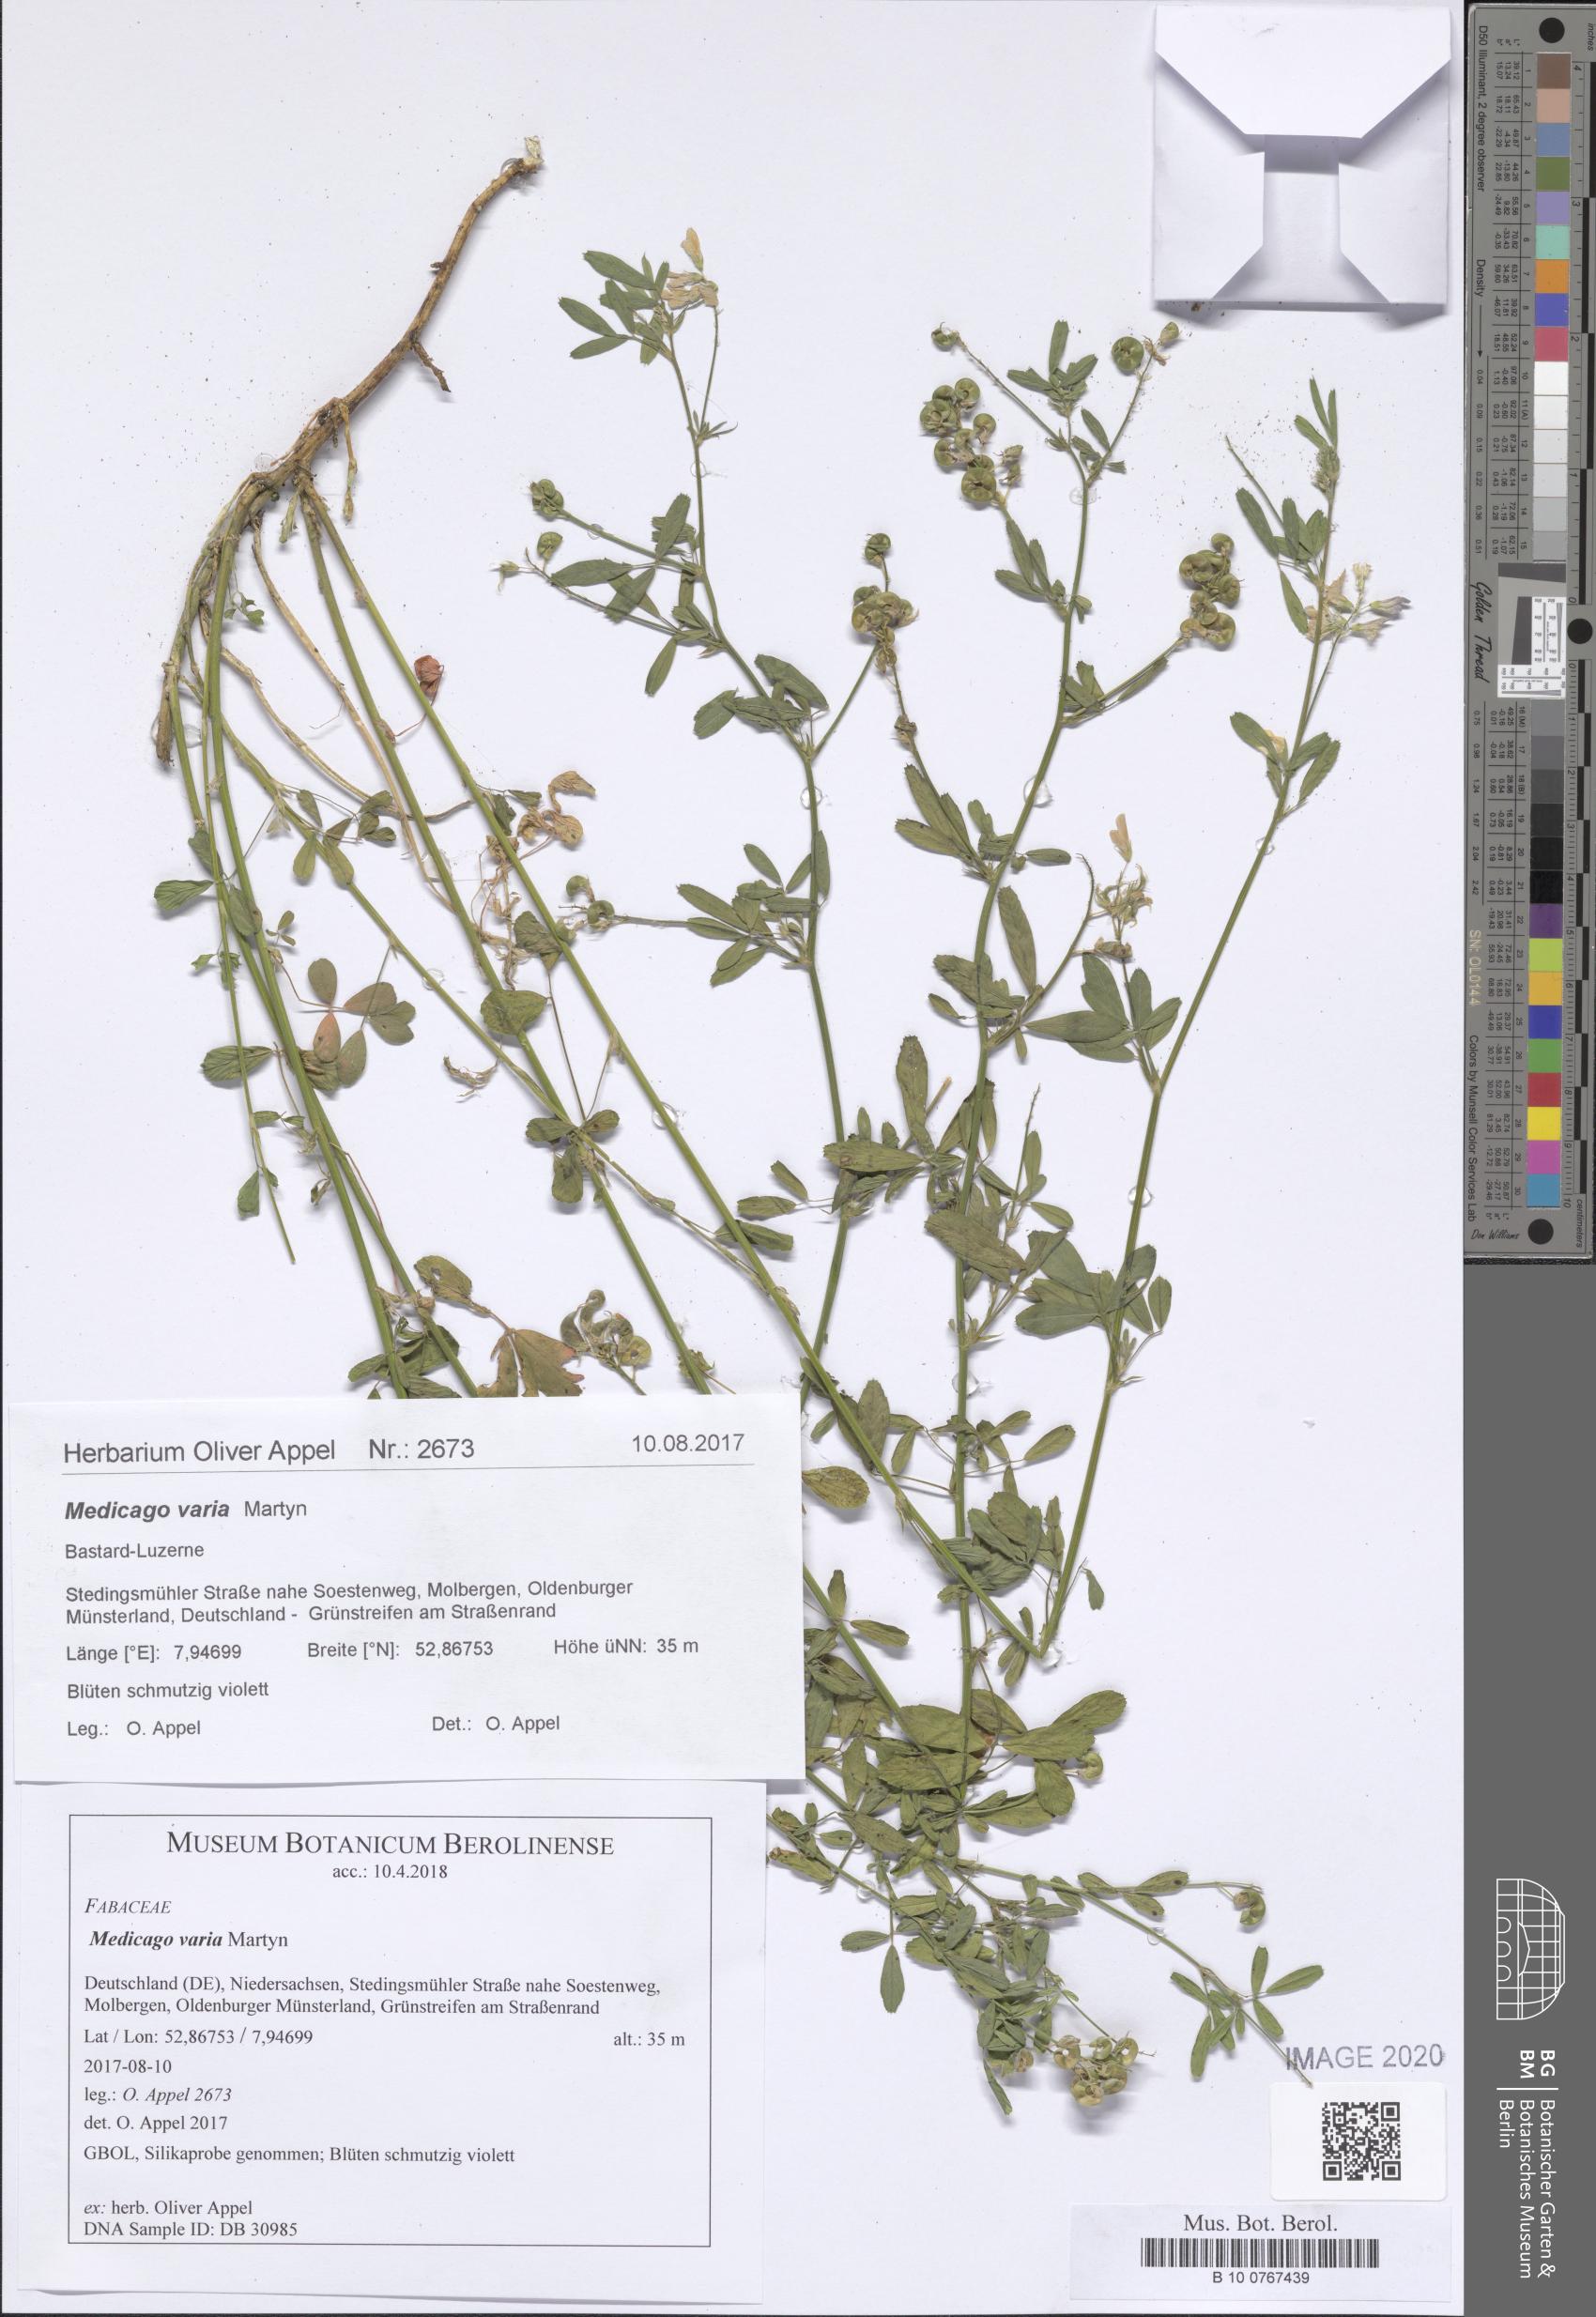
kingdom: Plantae
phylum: Tracheophyta
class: Magnoliopsida
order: Fabales
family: Fabaceae
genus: Medicago
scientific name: Medicago varia
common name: Sand lucerne
